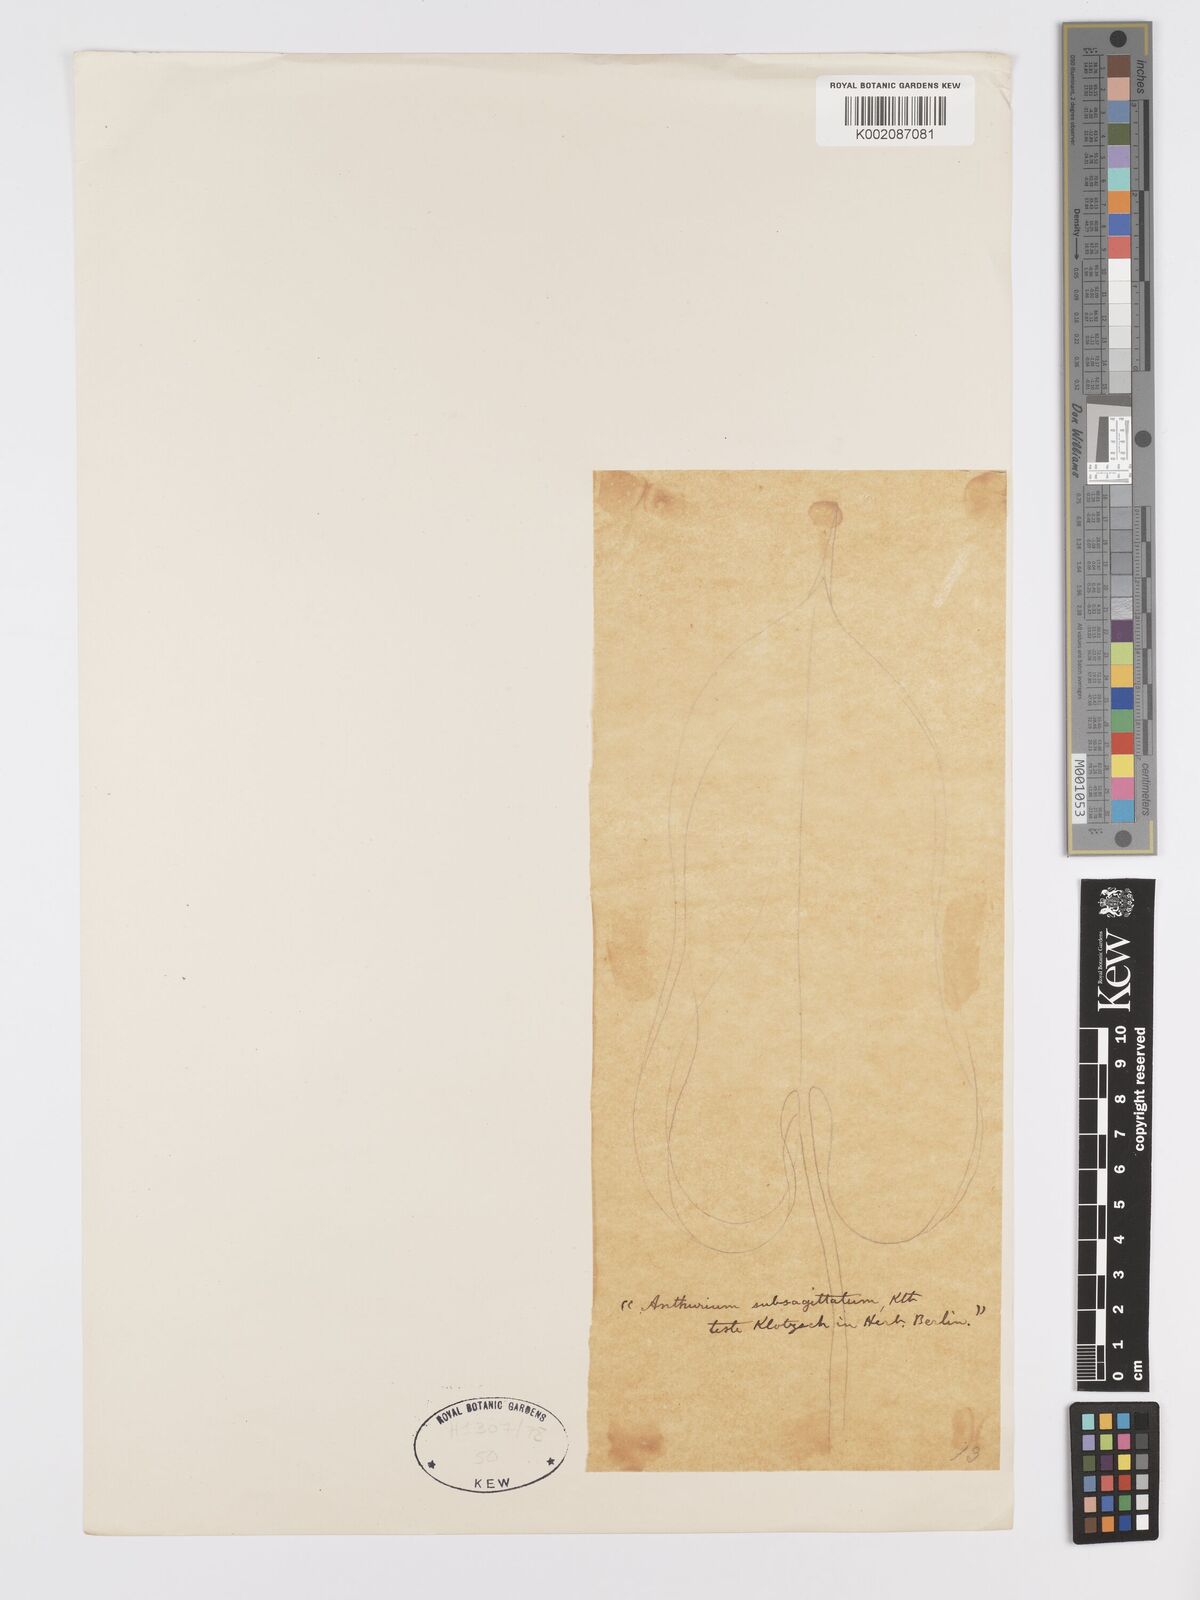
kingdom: Plantae
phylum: Tracheophyta
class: Liliopsida
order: Alismatales
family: Araceae
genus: Anthurium
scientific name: Anthurium
